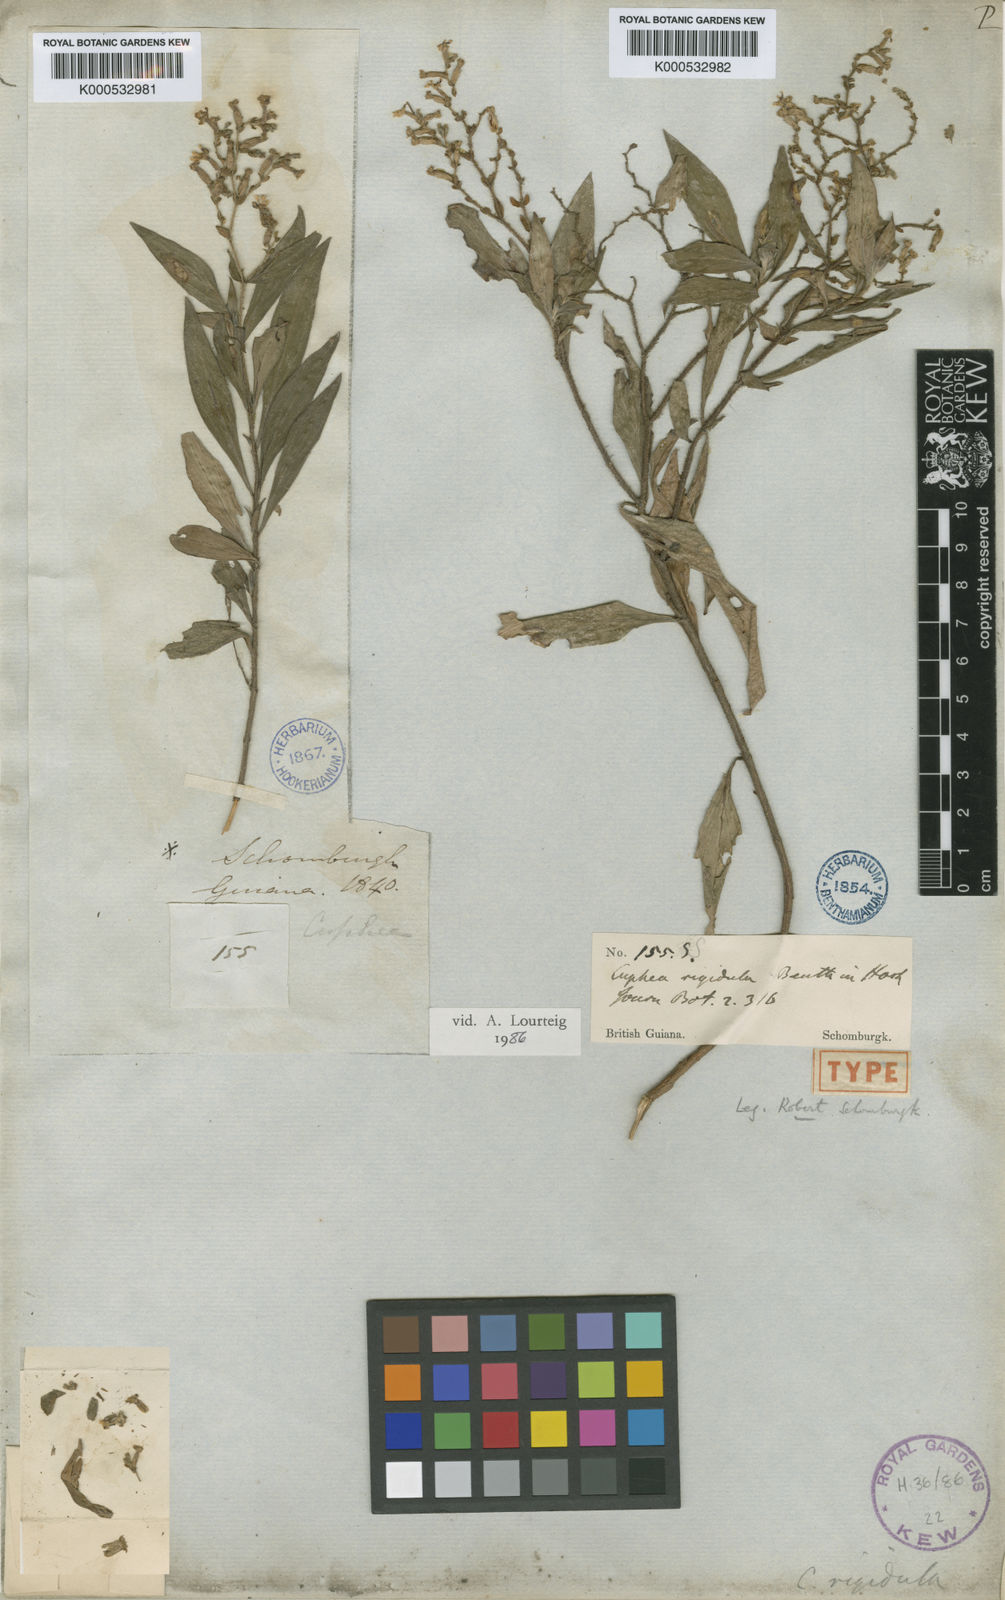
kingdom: Plantae
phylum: Tracheophyta
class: Magnoliopsida
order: Myrtales
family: Lythraceae
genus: Cuphea
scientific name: Cuphea rigidula
